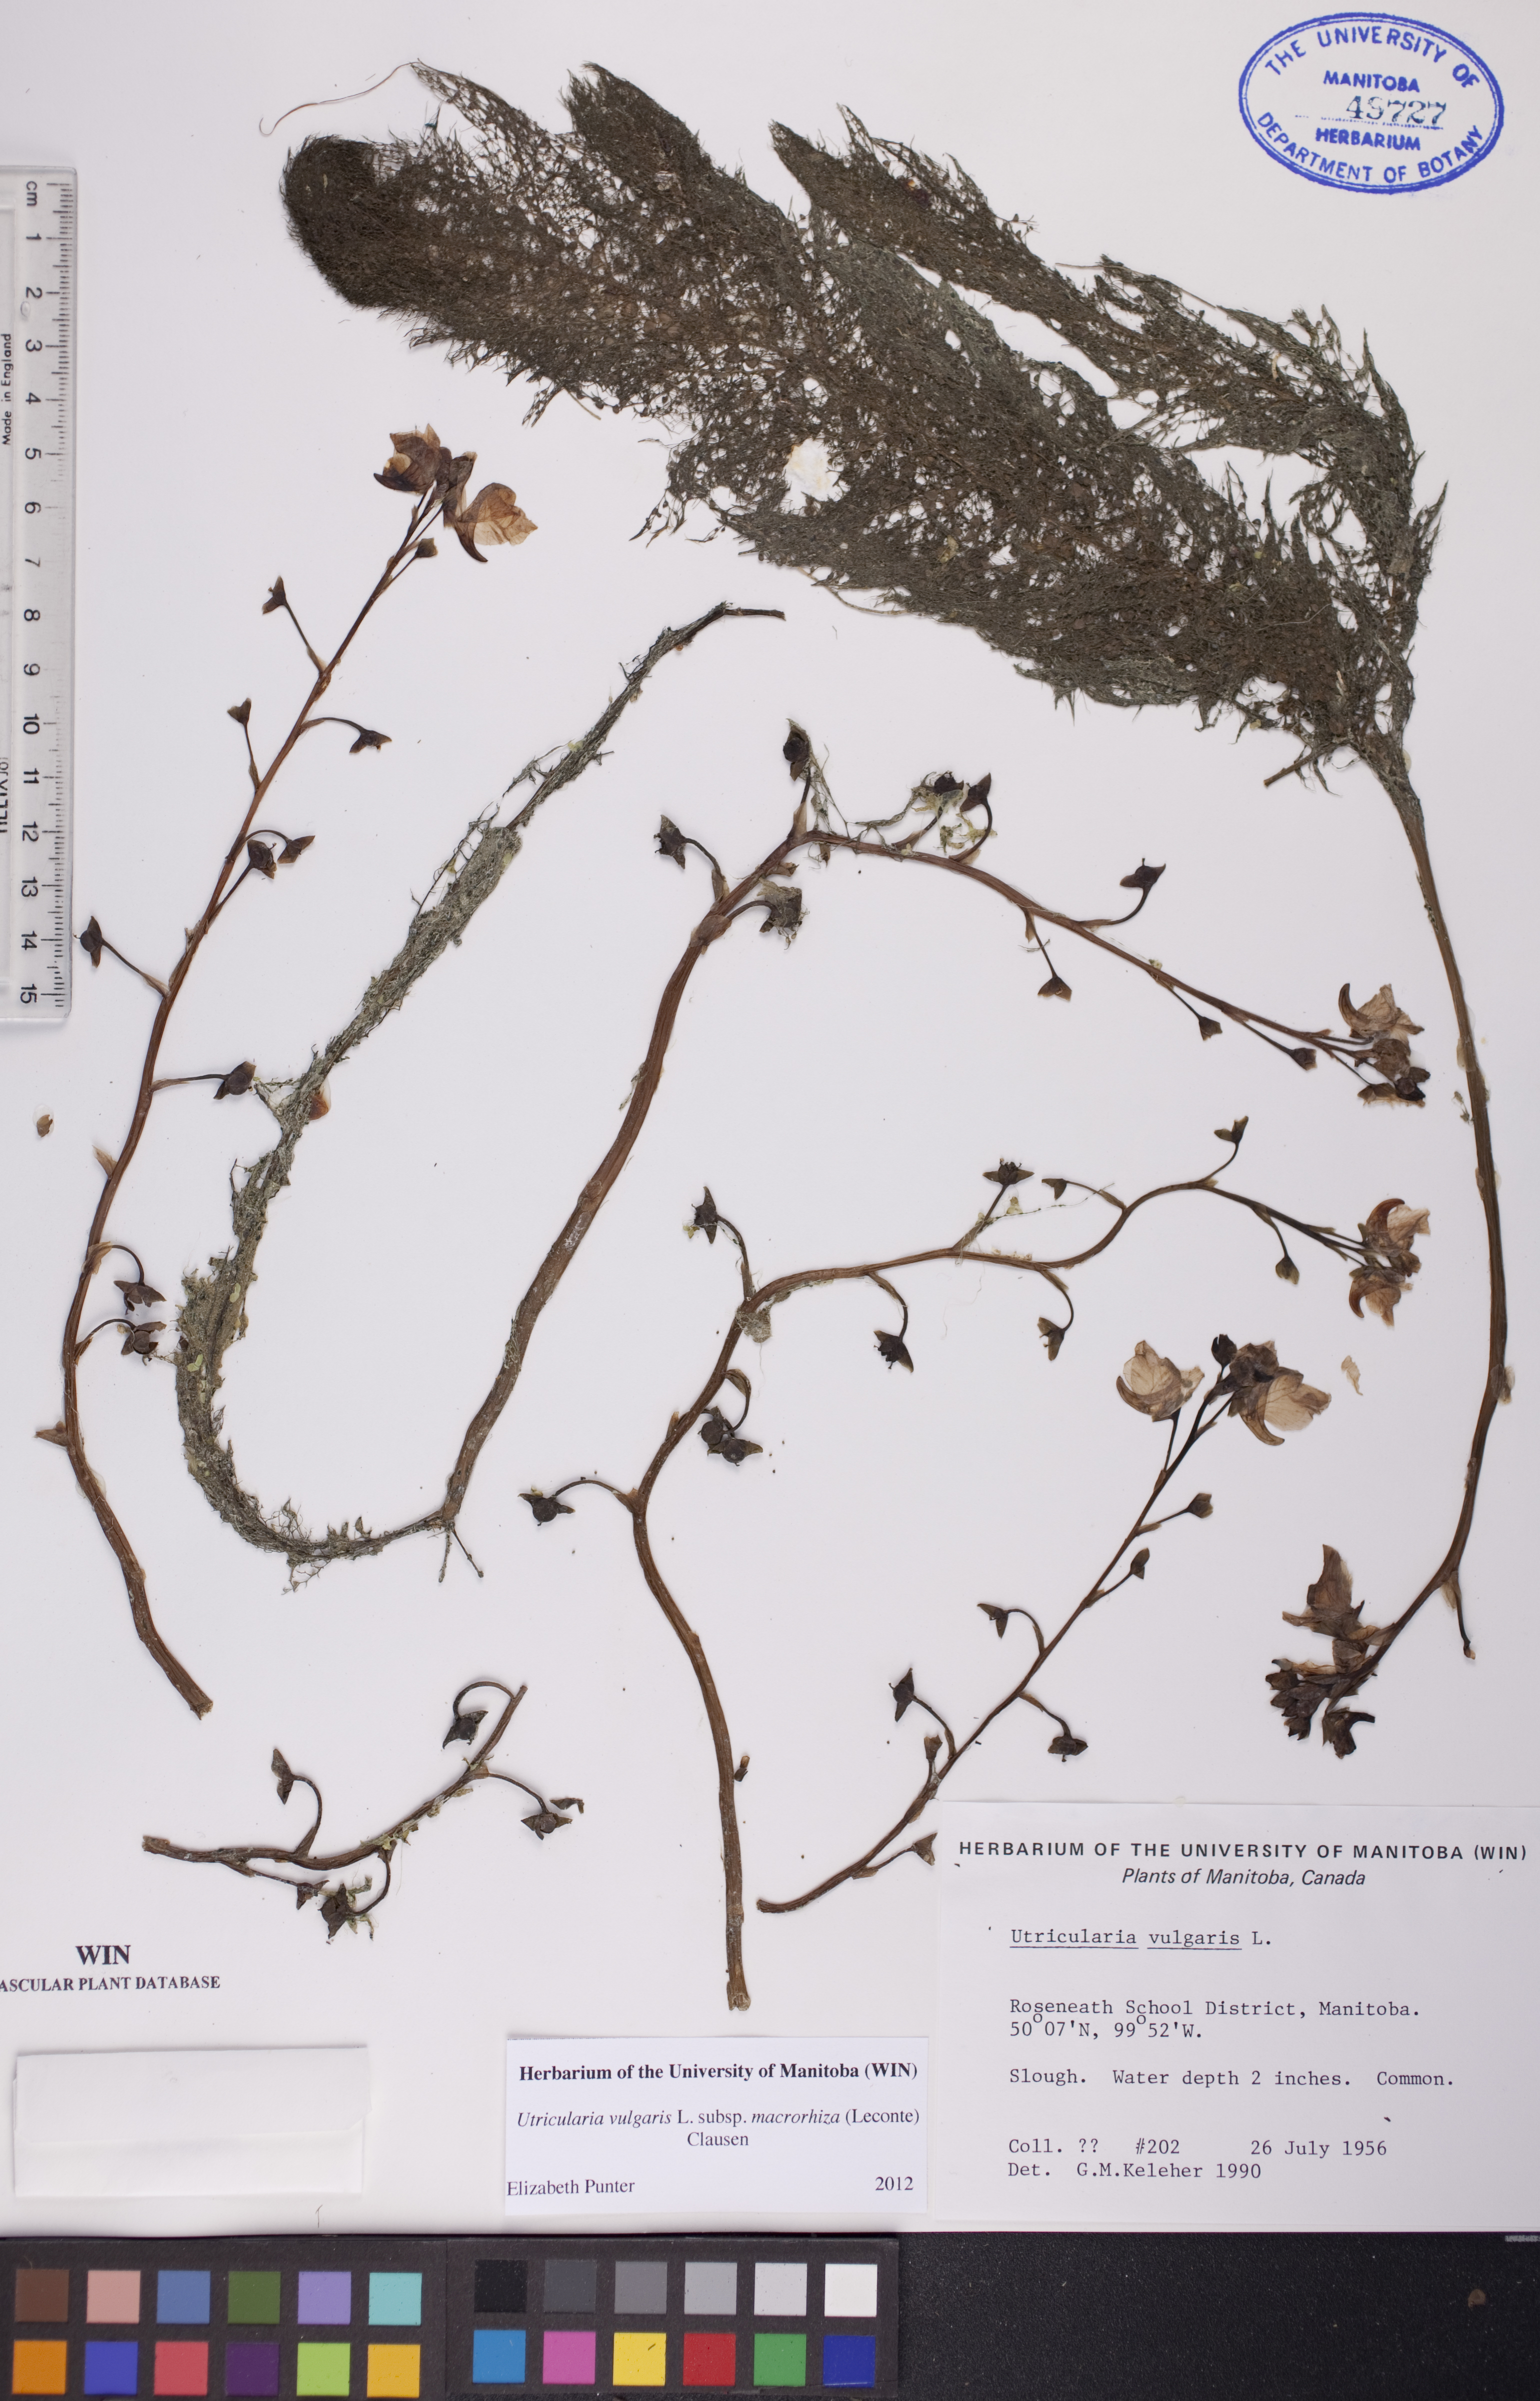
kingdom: Plantae
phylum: Tracheophyta
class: Magnoliopsida
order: Lamiales
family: Lentibulariaceae
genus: Utricularia
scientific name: Utricularia macrorhiza
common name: Common bladderwort
